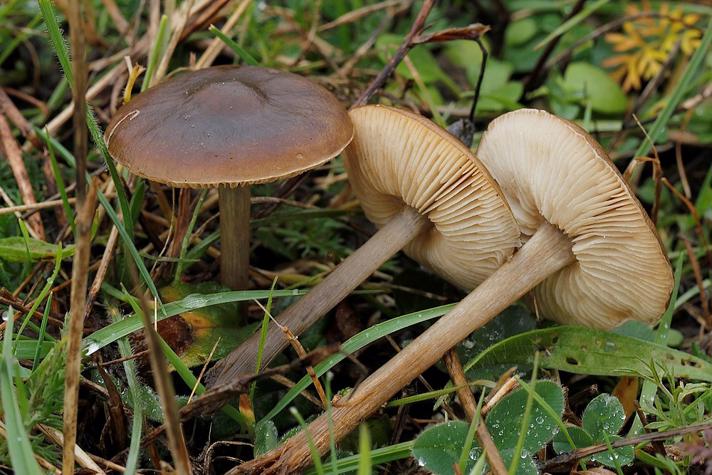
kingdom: Fungi
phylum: Basidiomycota
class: Agaricomycetes
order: Agaricales
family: Tricholomataceae
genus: Melanoleuca
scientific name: Melanoleuca
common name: munkehat
